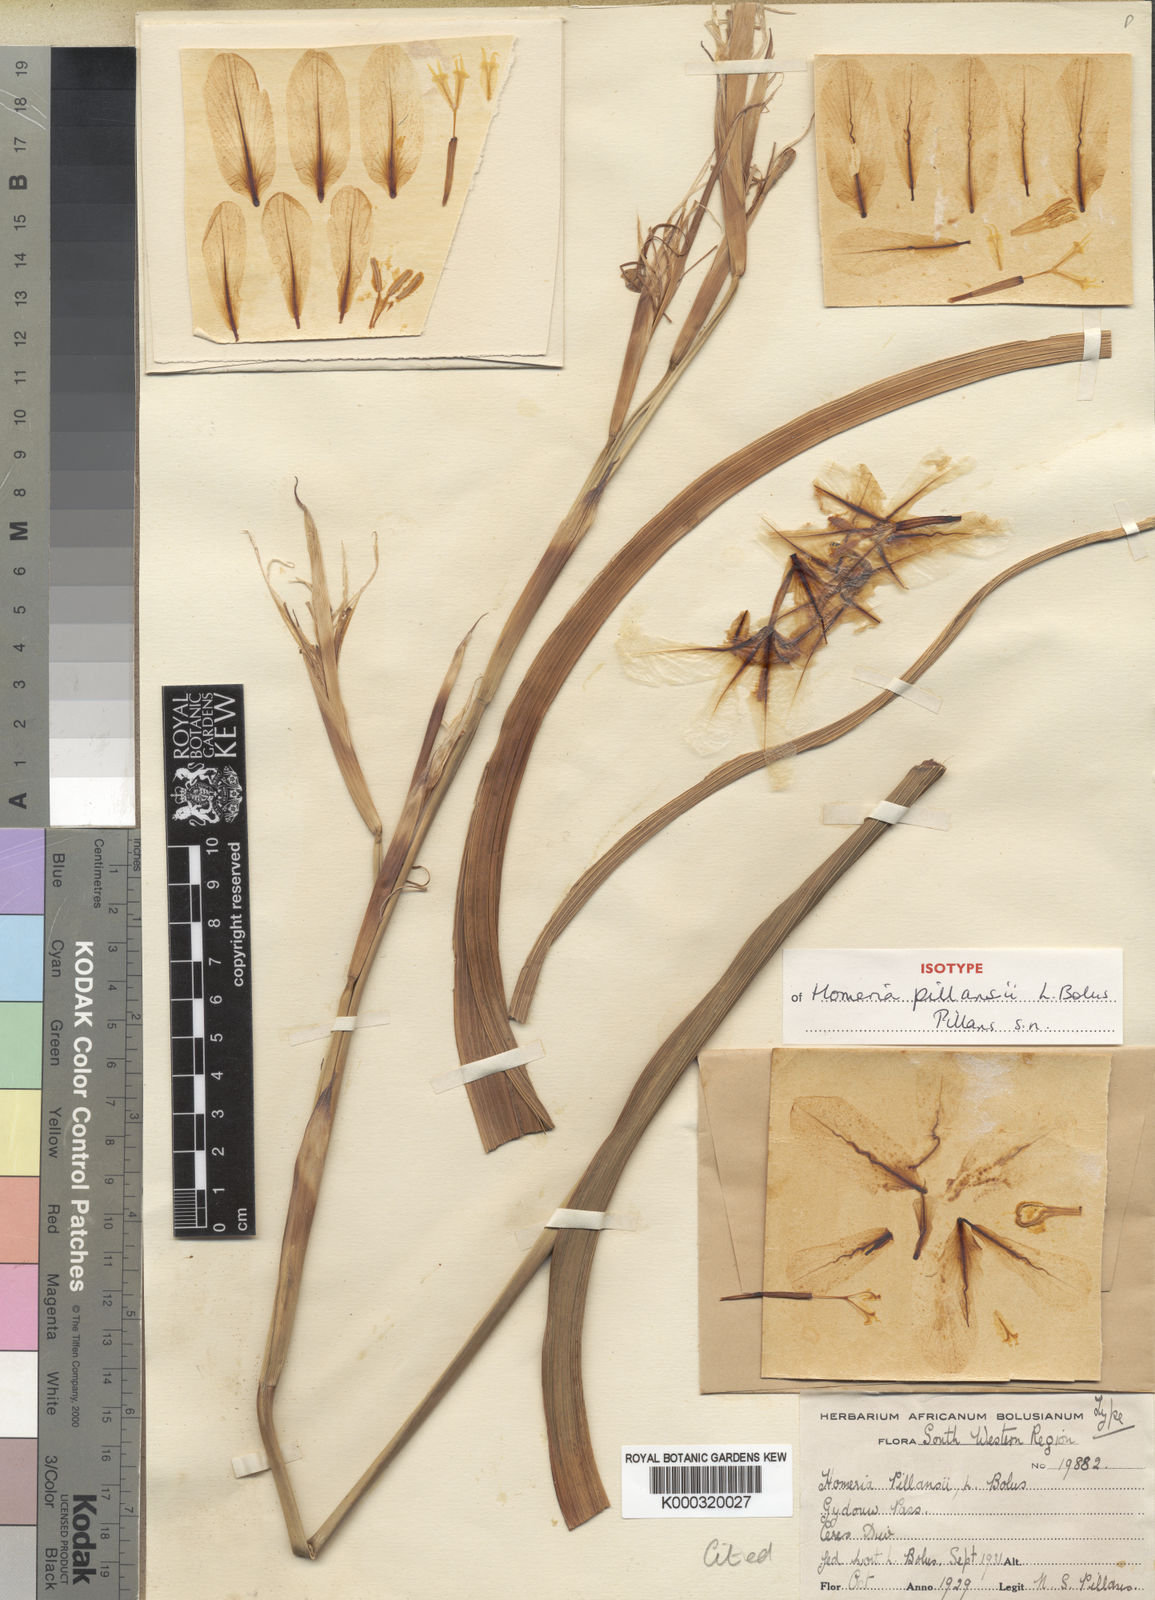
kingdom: Plantae
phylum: Tracheophyta
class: Liliopsida
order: Asparagales
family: Iridaceae
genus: Moraea
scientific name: Moraea cookii
